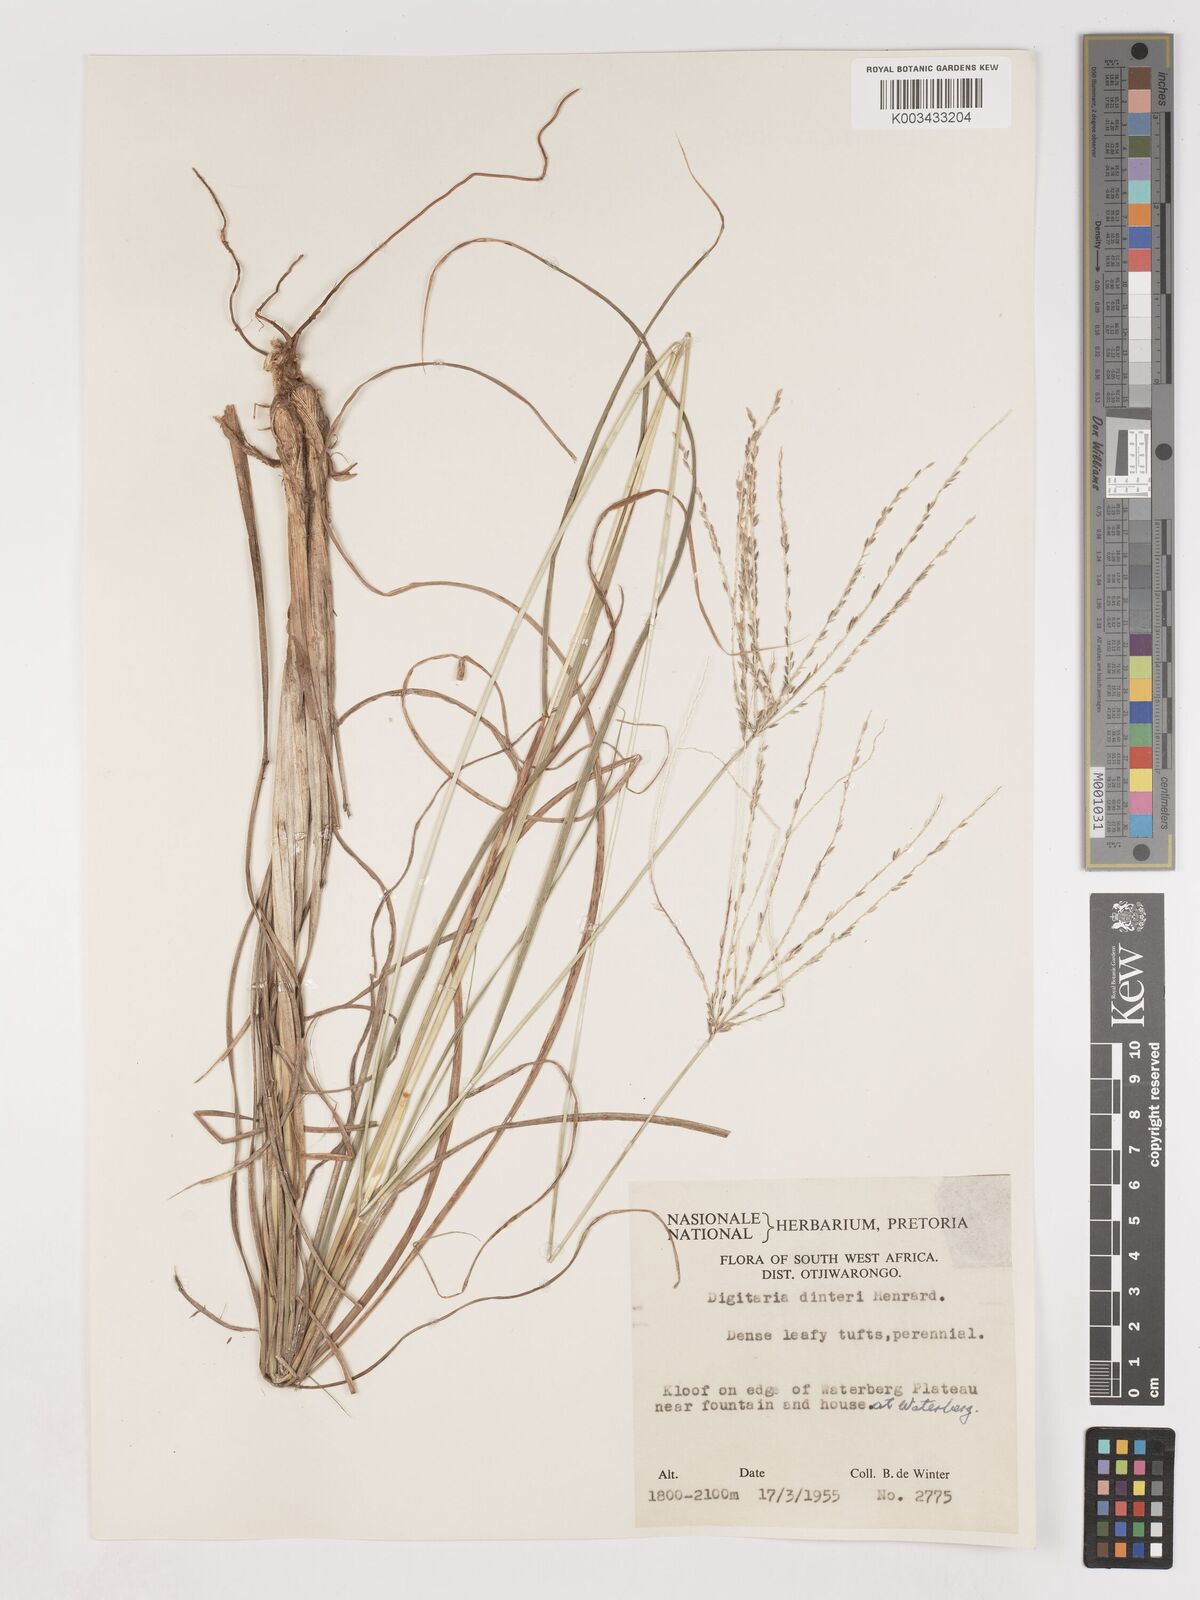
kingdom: Plantae
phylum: Tracheophyta
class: Liliopsida
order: Poales
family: Poaceae
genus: Digitaria
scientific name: Digitaria eriantha
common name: Digitgrass
